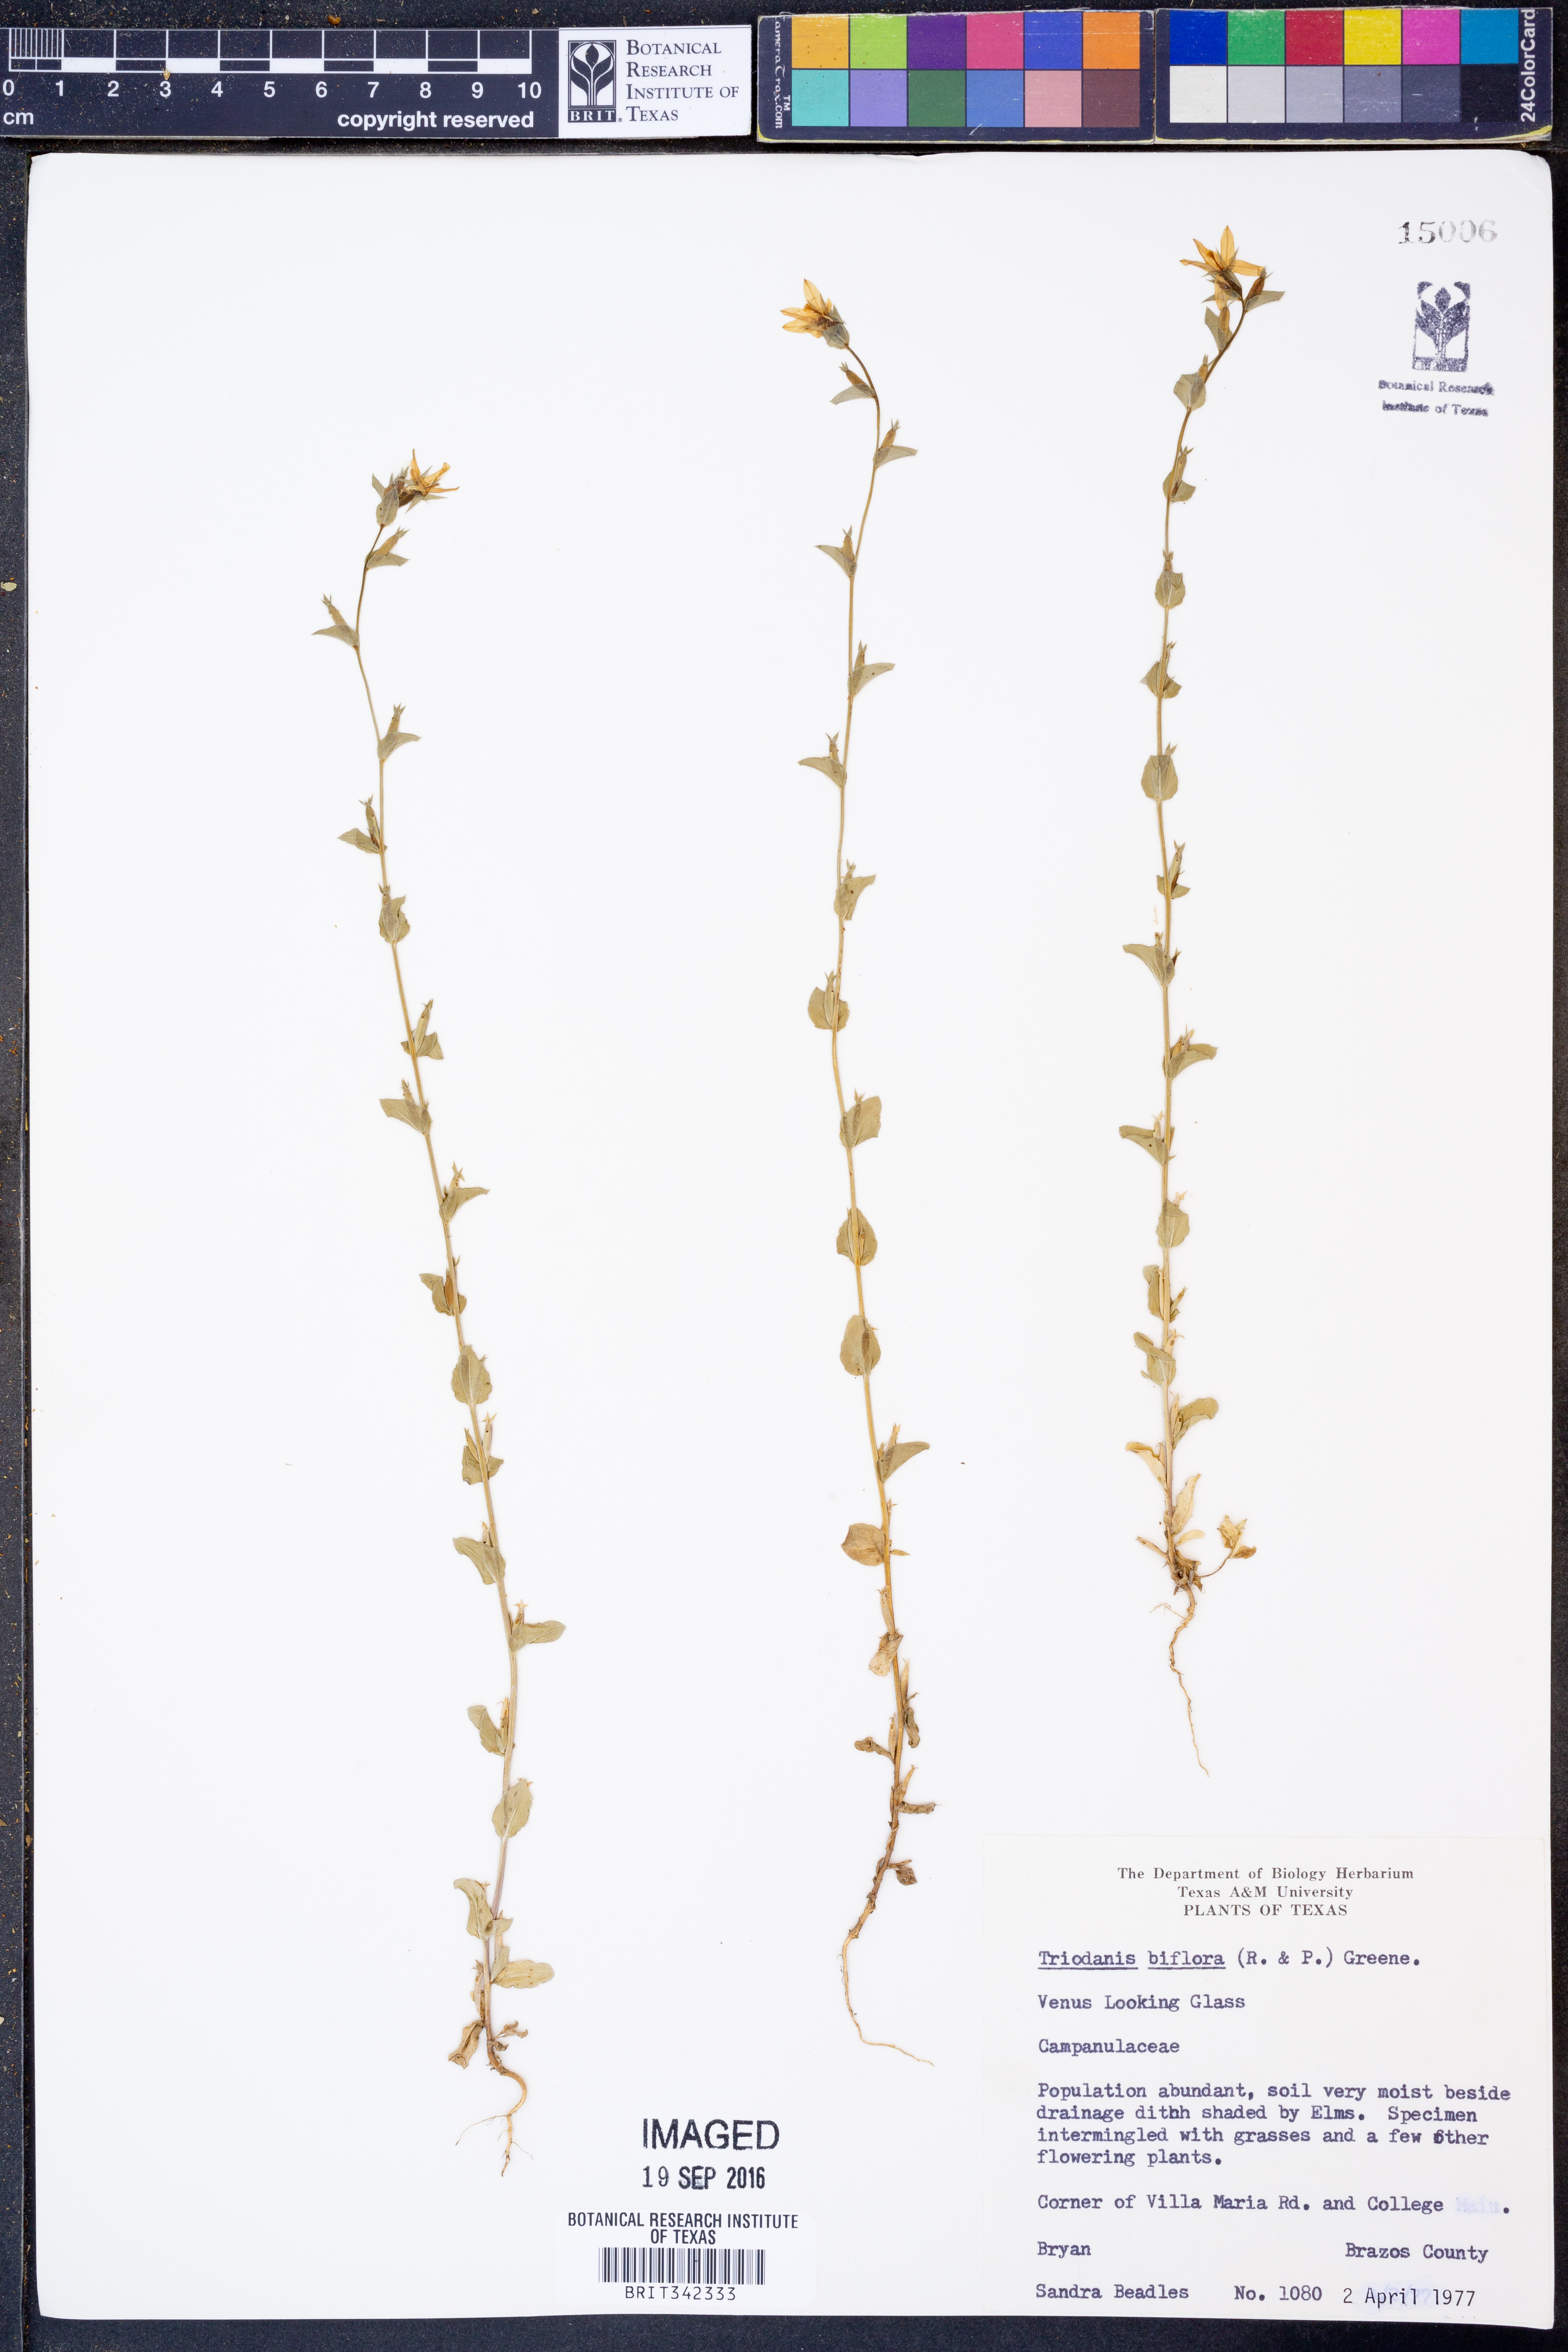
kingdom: Plantae
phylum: Tracheophyta
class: Magnoliopsida
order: Asterales
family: Campanulaceae
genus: Triodanis
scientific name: Triodanis perfoliata
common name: Clasping venus' looking-glass
